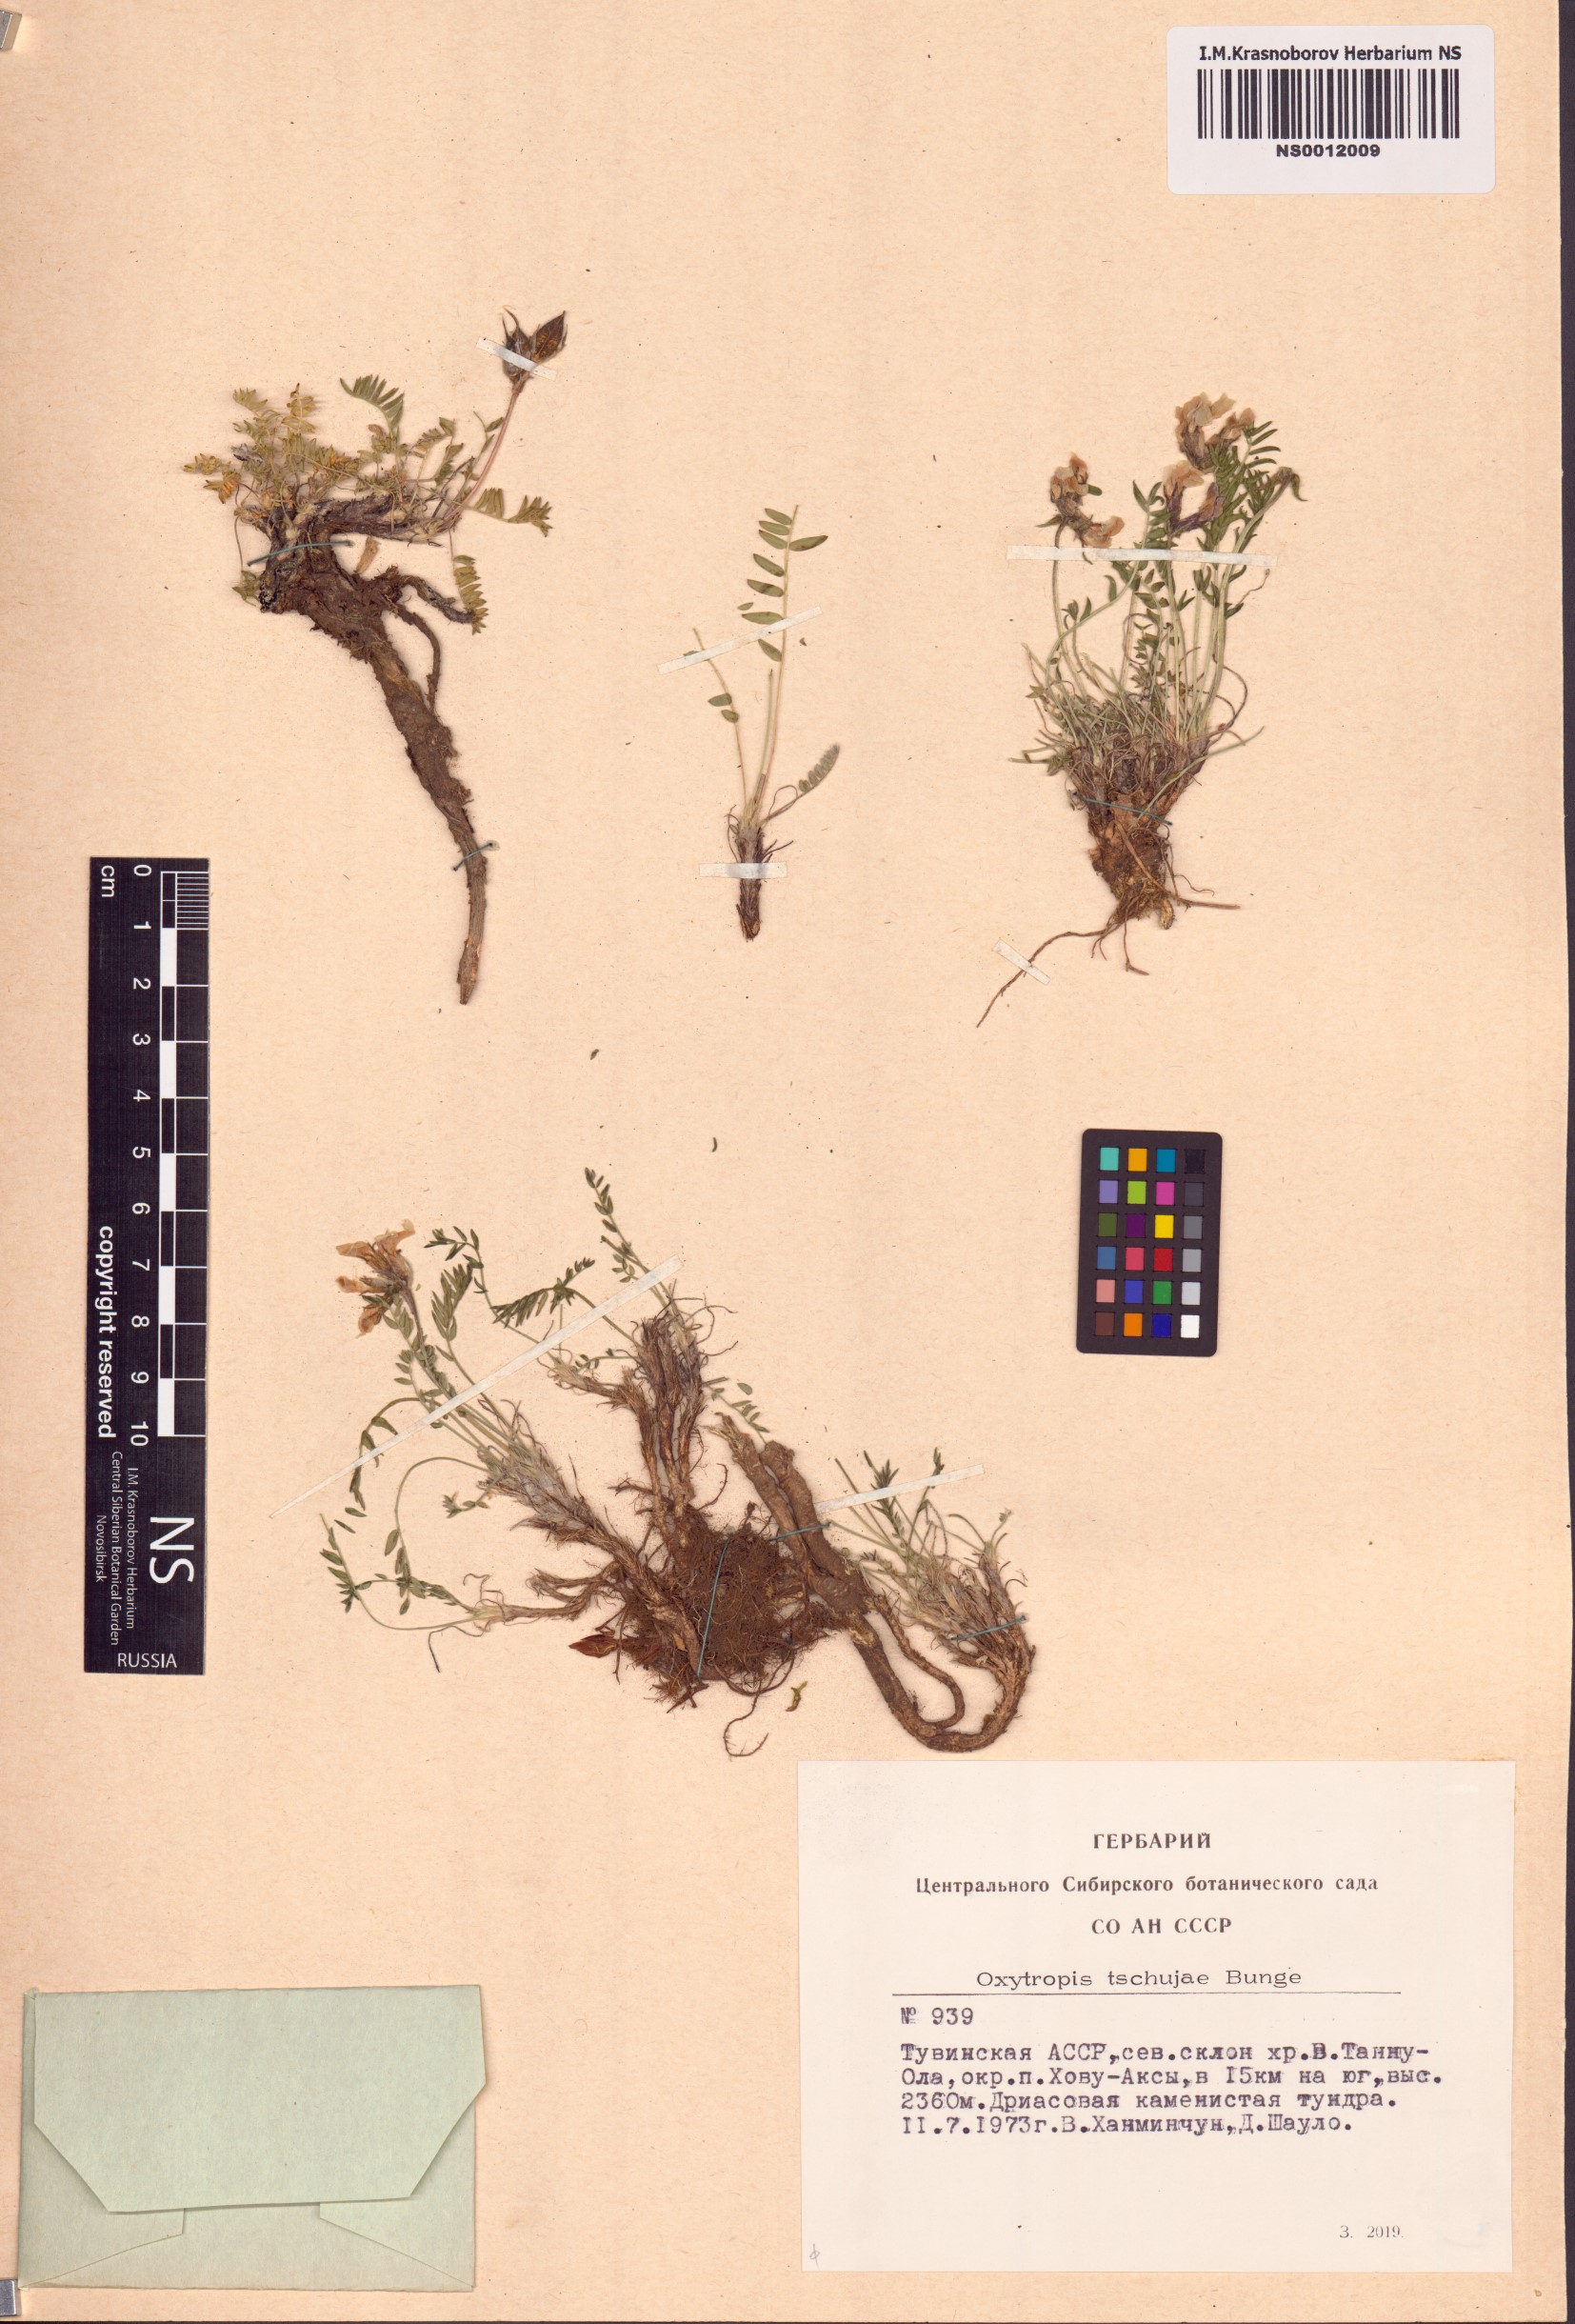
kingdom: Plantae
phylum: Tracheophyta
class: Magnoliopsida
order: Fabales
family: Fabaceae
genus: Oxytropis
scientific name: Oxytropis tschujae
